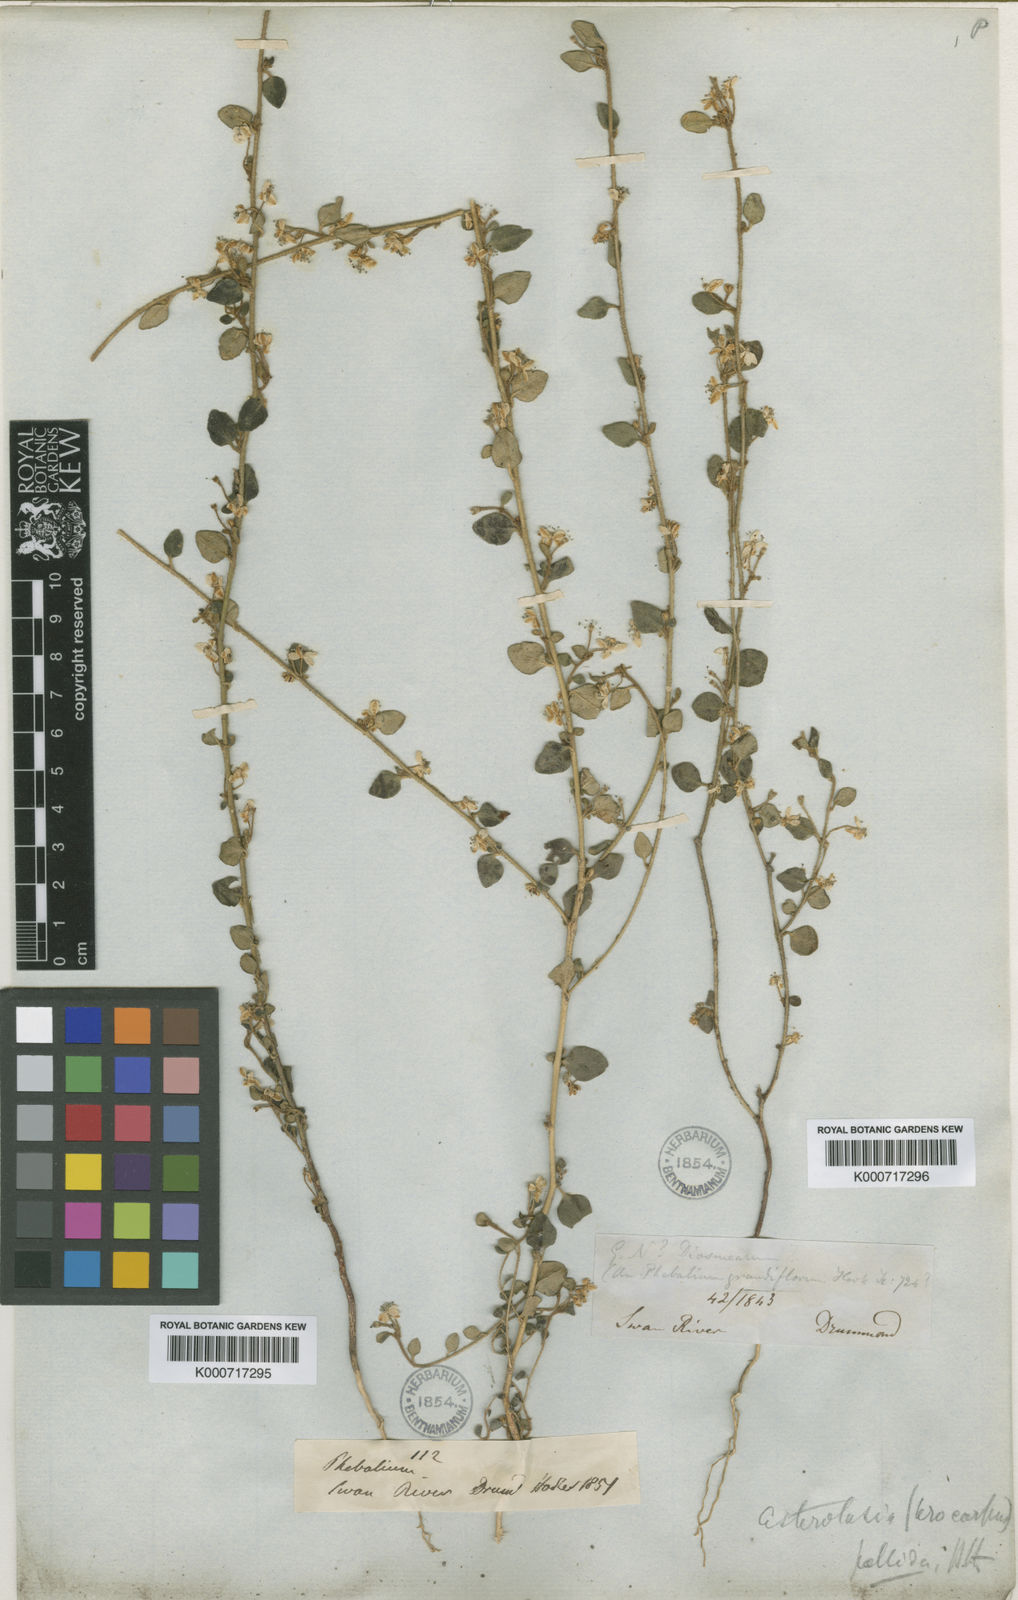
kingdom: Plantae
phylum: Tracheophyta
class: Magnoliopsida
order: Sapindales
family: Rutaceae
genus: Asterolasia
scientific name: Asterolasia squamuligera
